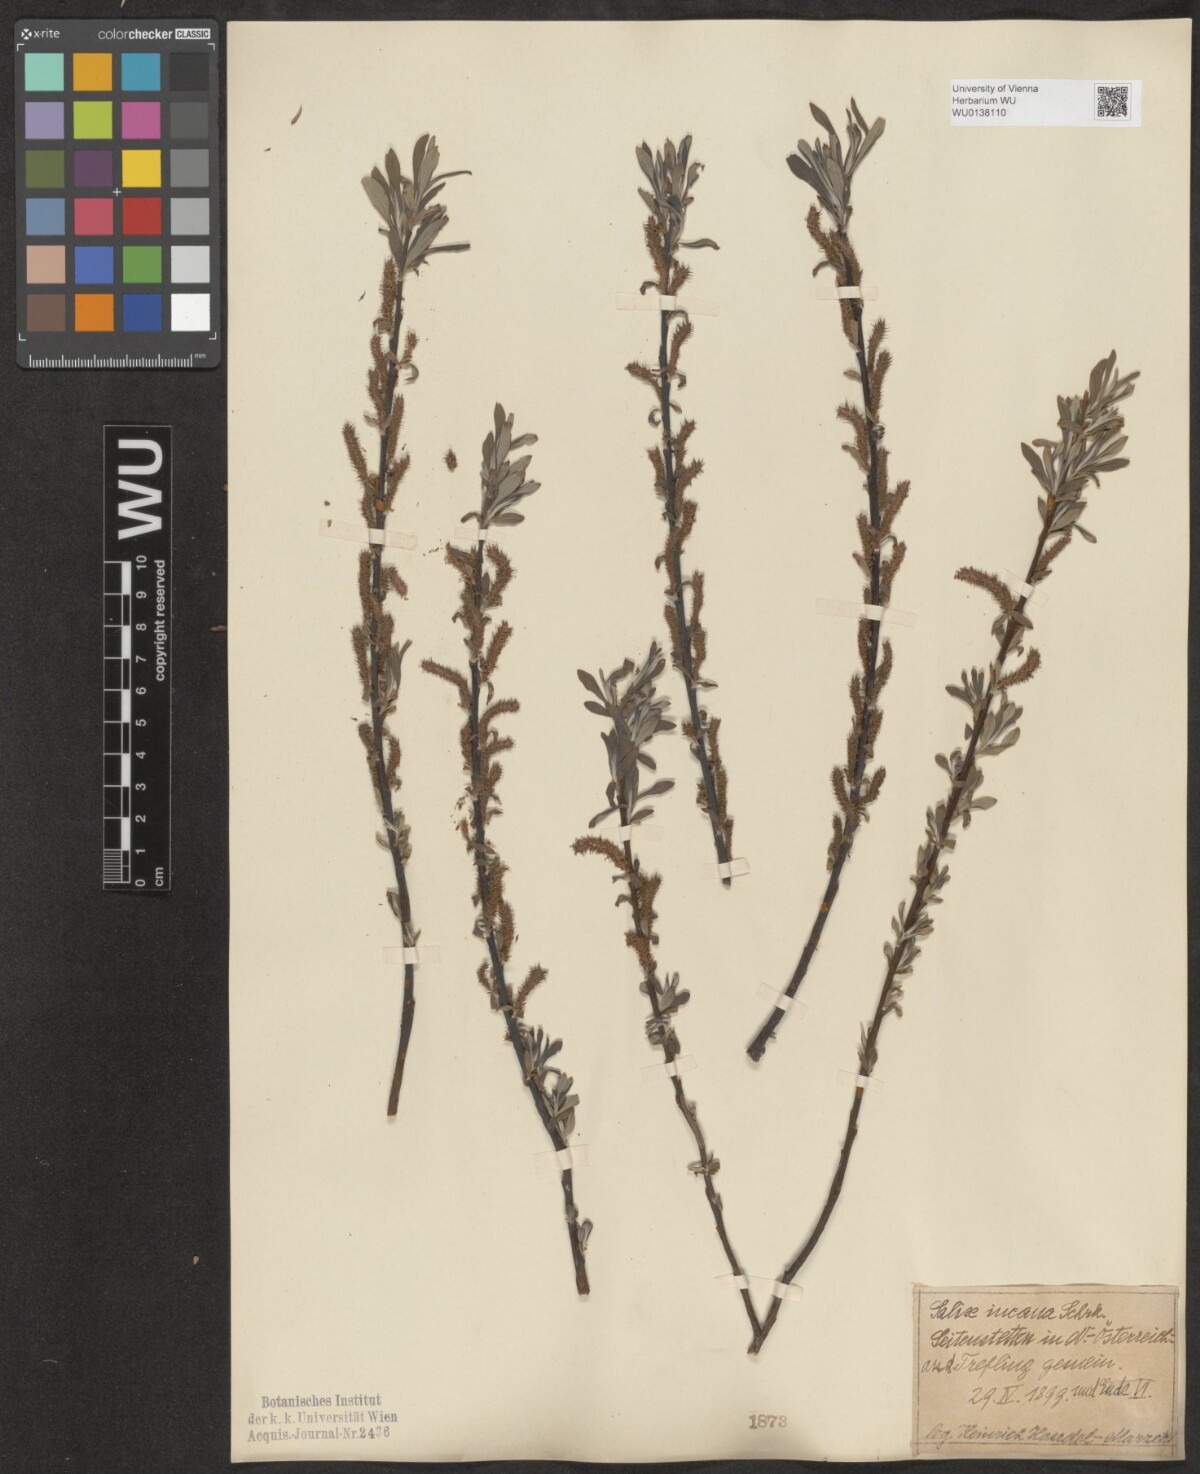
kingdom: Plantae
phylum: Tracheophyta
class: Magnoliopsida
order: Malpighiales
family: Salicaceae
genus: Salix
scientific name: Salix eleagnos
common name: Elaeagnus willow
